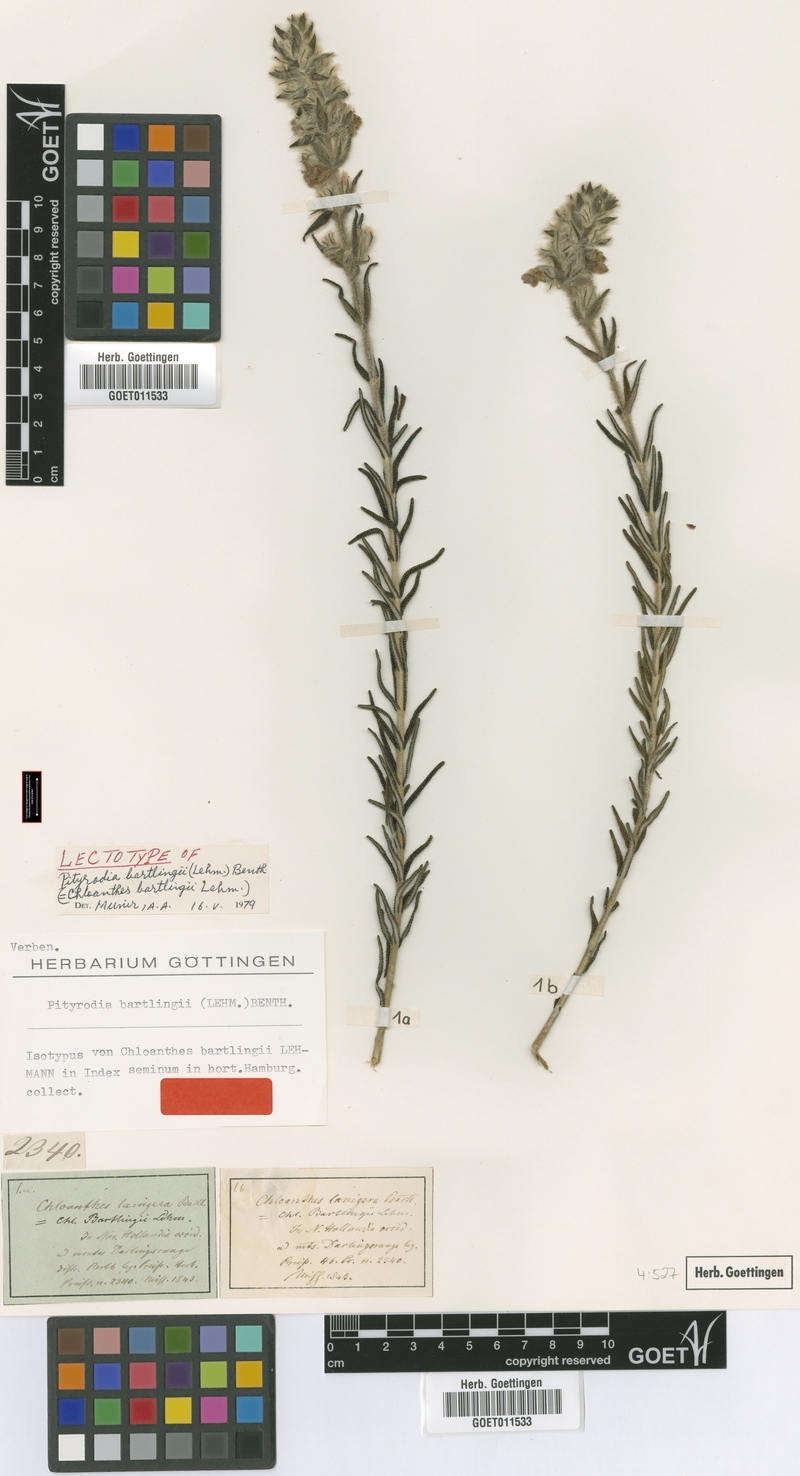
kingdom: Plantae
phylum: Tracheophyta
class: Magnoliopsida
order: Lamiales
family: Lamiaceae
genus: Hemiphora
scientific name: Hemiphora bartlingii
